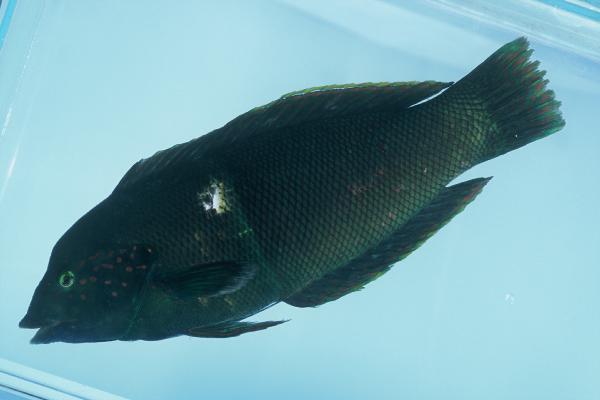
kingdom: Animalia
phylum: Chordata
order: Perciformes
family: Labridae
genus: Coris
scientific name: Coris aygula
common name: Clown coris
